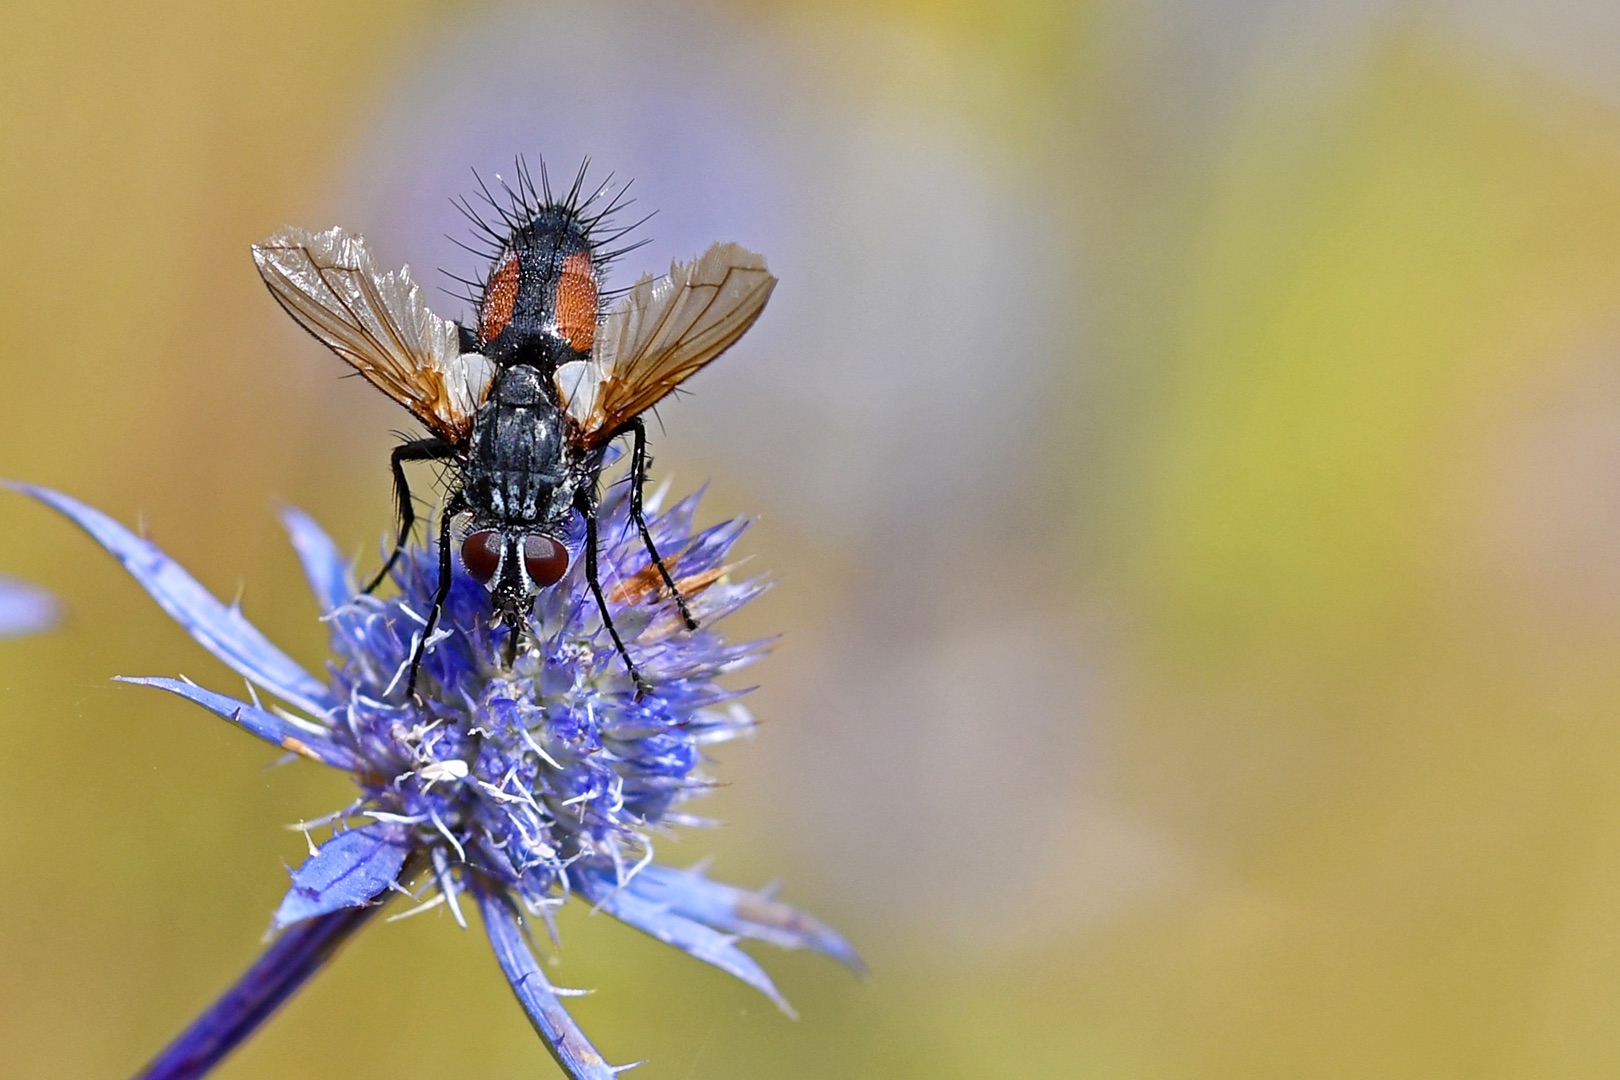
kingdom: Animalia
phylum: Arthropoda
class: Insecta
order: Diptera
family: Tachinidae
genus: Eriothrix
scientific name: Eriothrix rufomaculatus
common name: Rød snylteflue
